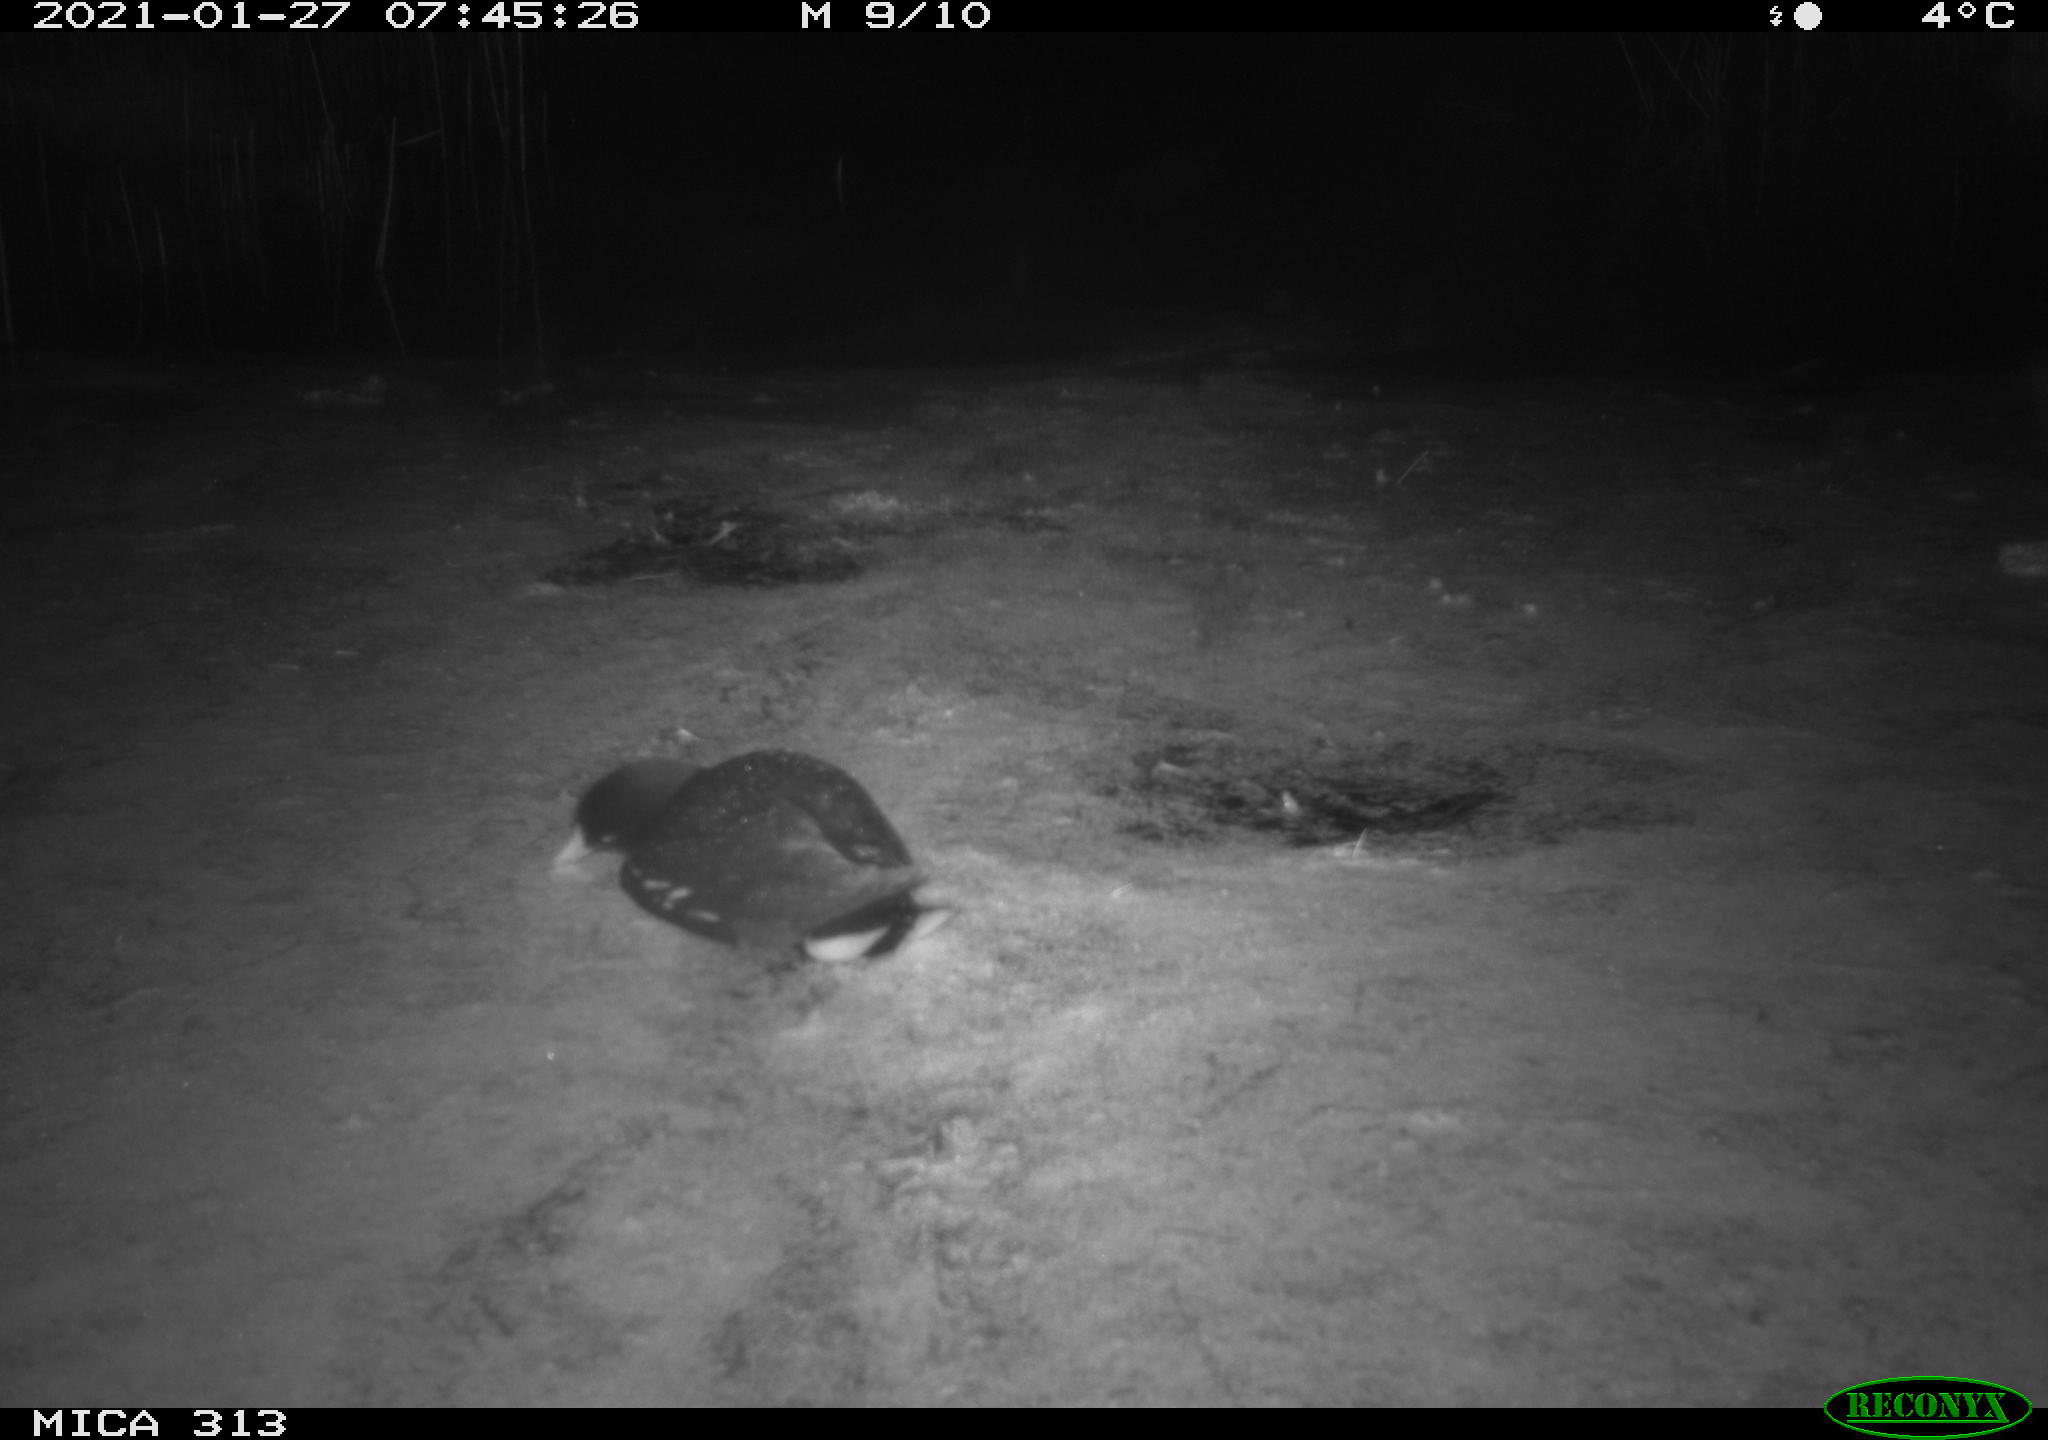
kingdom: Animalia
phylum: Chordata
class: Aves
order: Gruiformes
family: Rallidae
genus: Fulica
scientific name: Fulica atra
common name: Eurasian coot
